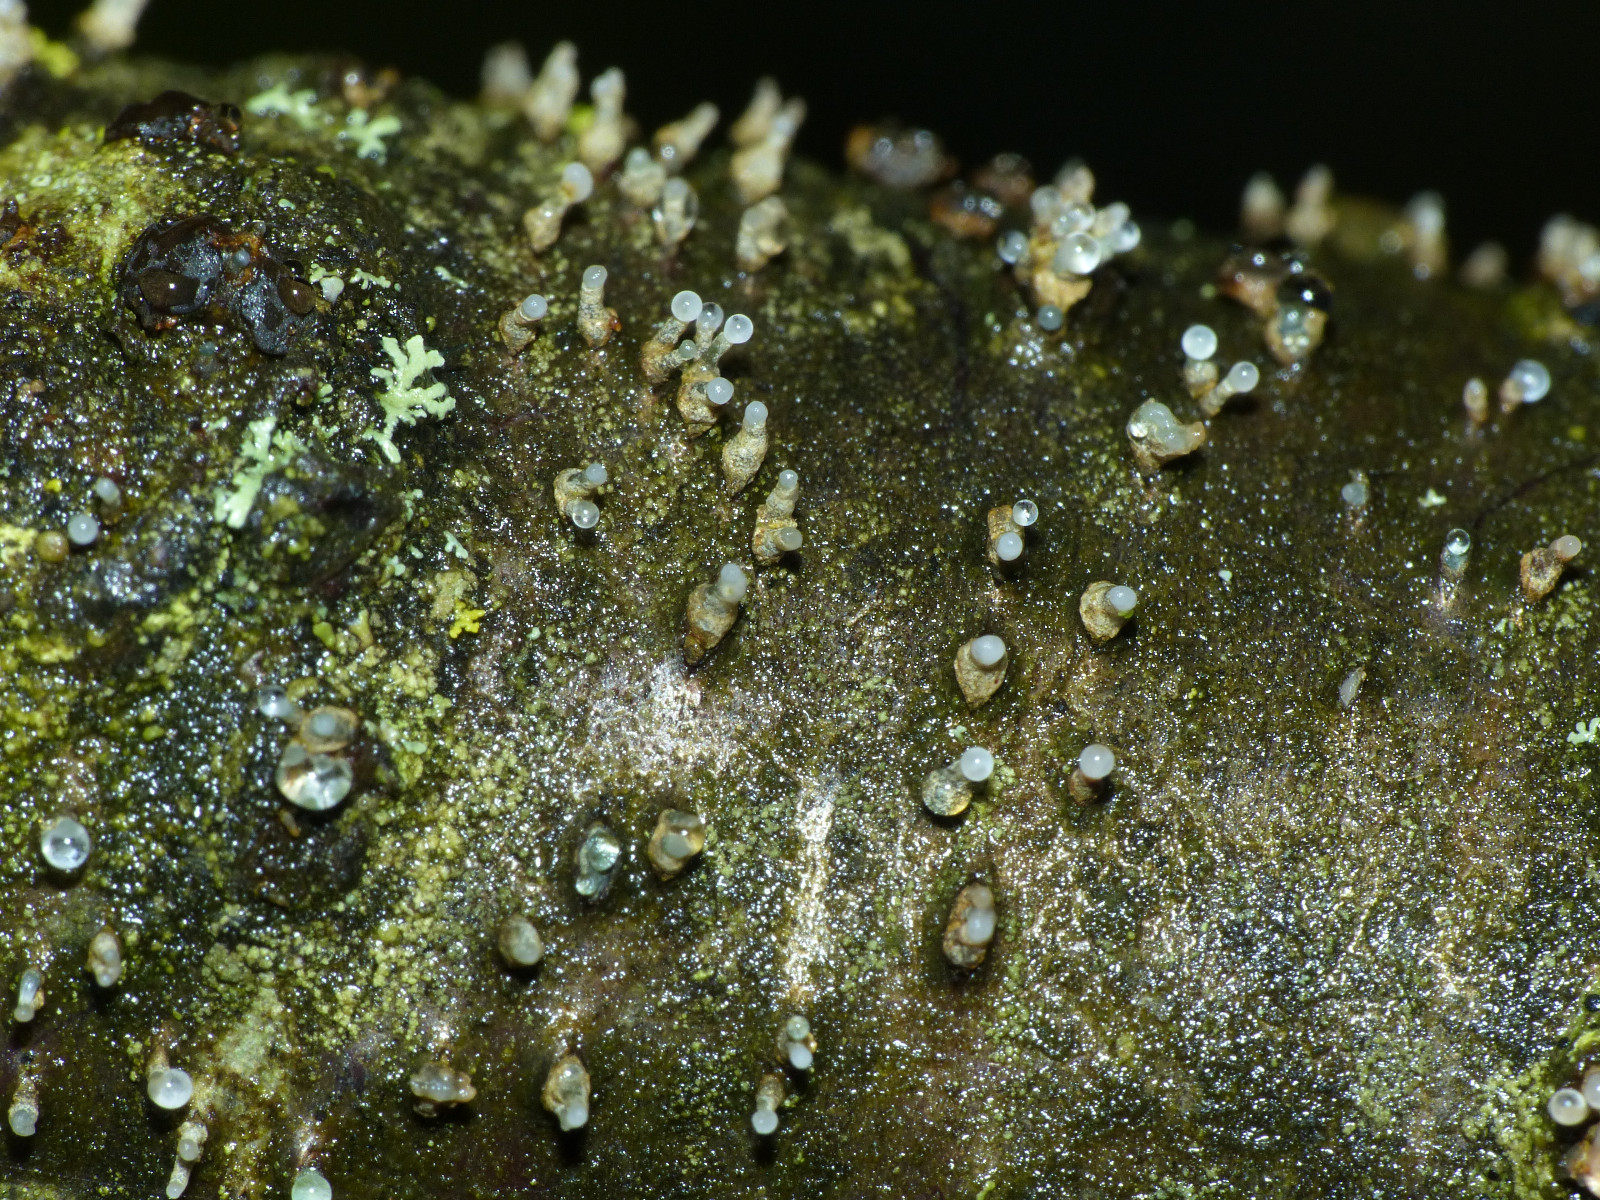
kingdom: Fungi
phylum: Ascomycota
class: Leotiomycetes
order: Helotiales
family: Dermateaceae
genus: Dermea
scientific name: Dermea cerasi
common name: kirsebær-klyngeskive
